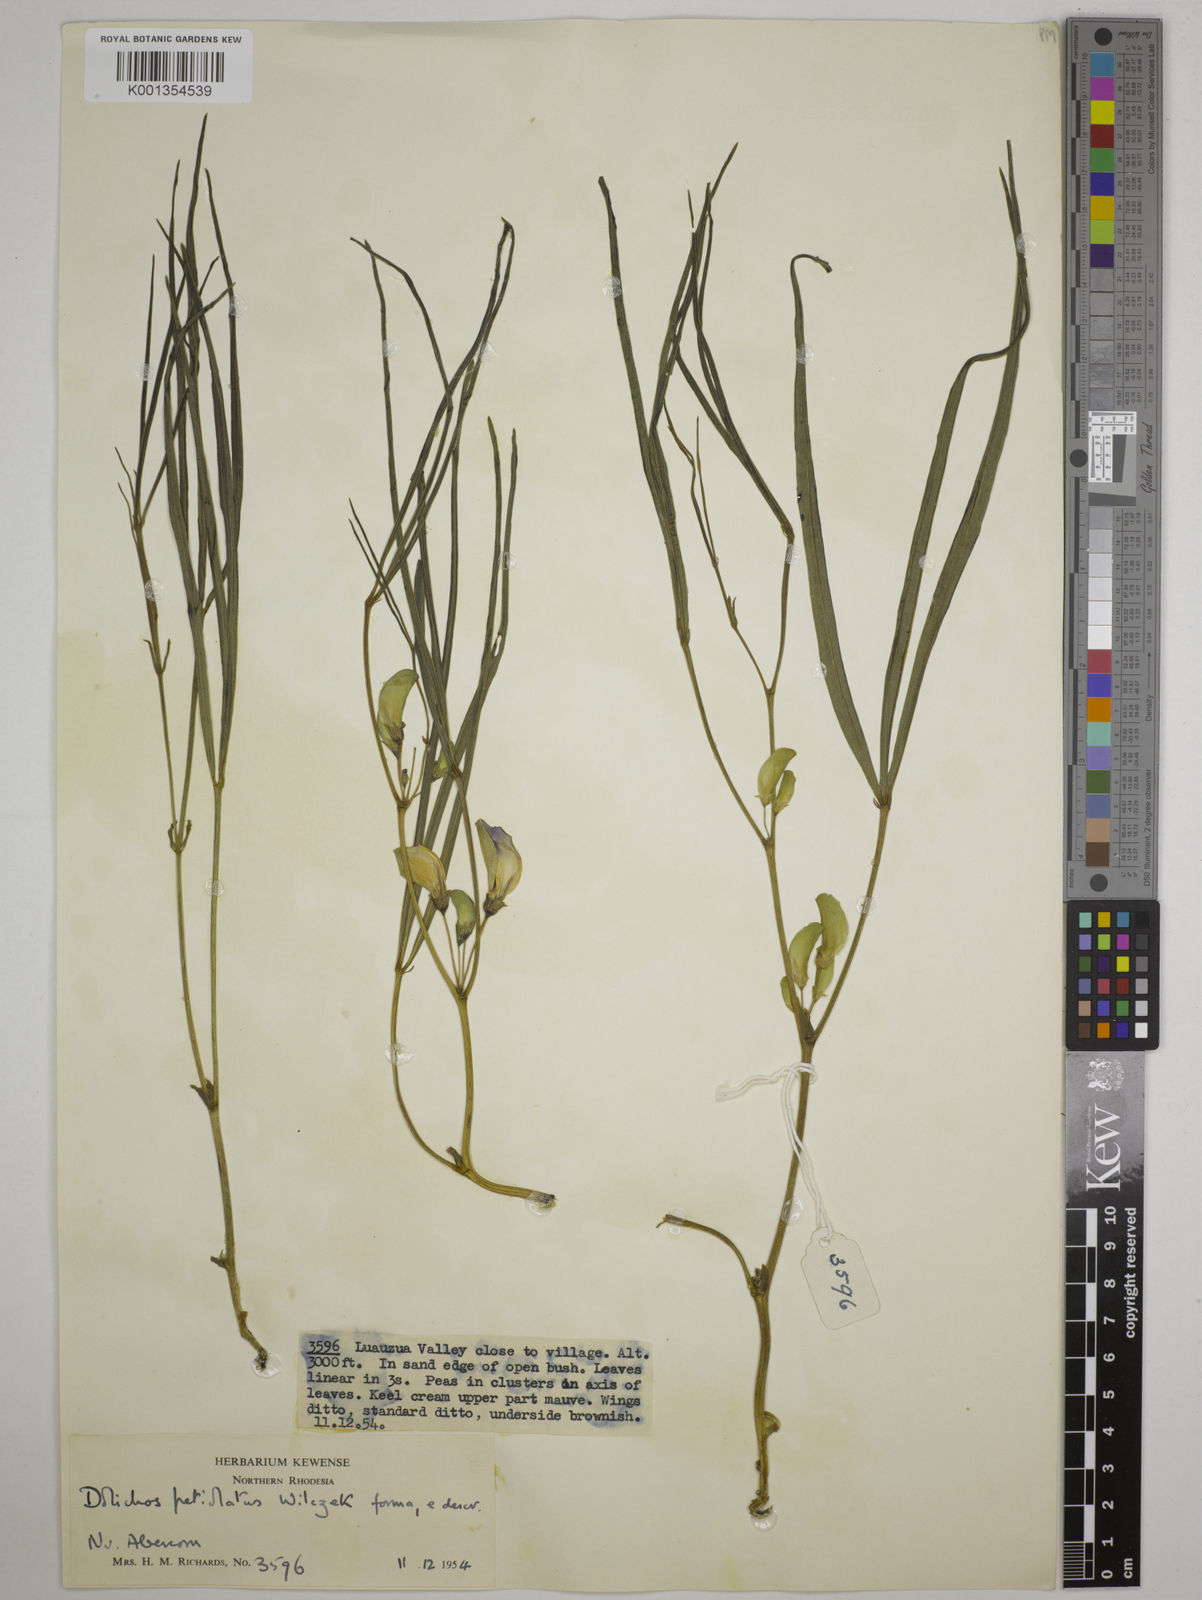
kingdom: Plantae
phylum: Tracheophyta
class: Magnoliopsida
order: Fabales
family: Fabaceae
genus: Dolichos
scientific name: Dolichos petiolatus
